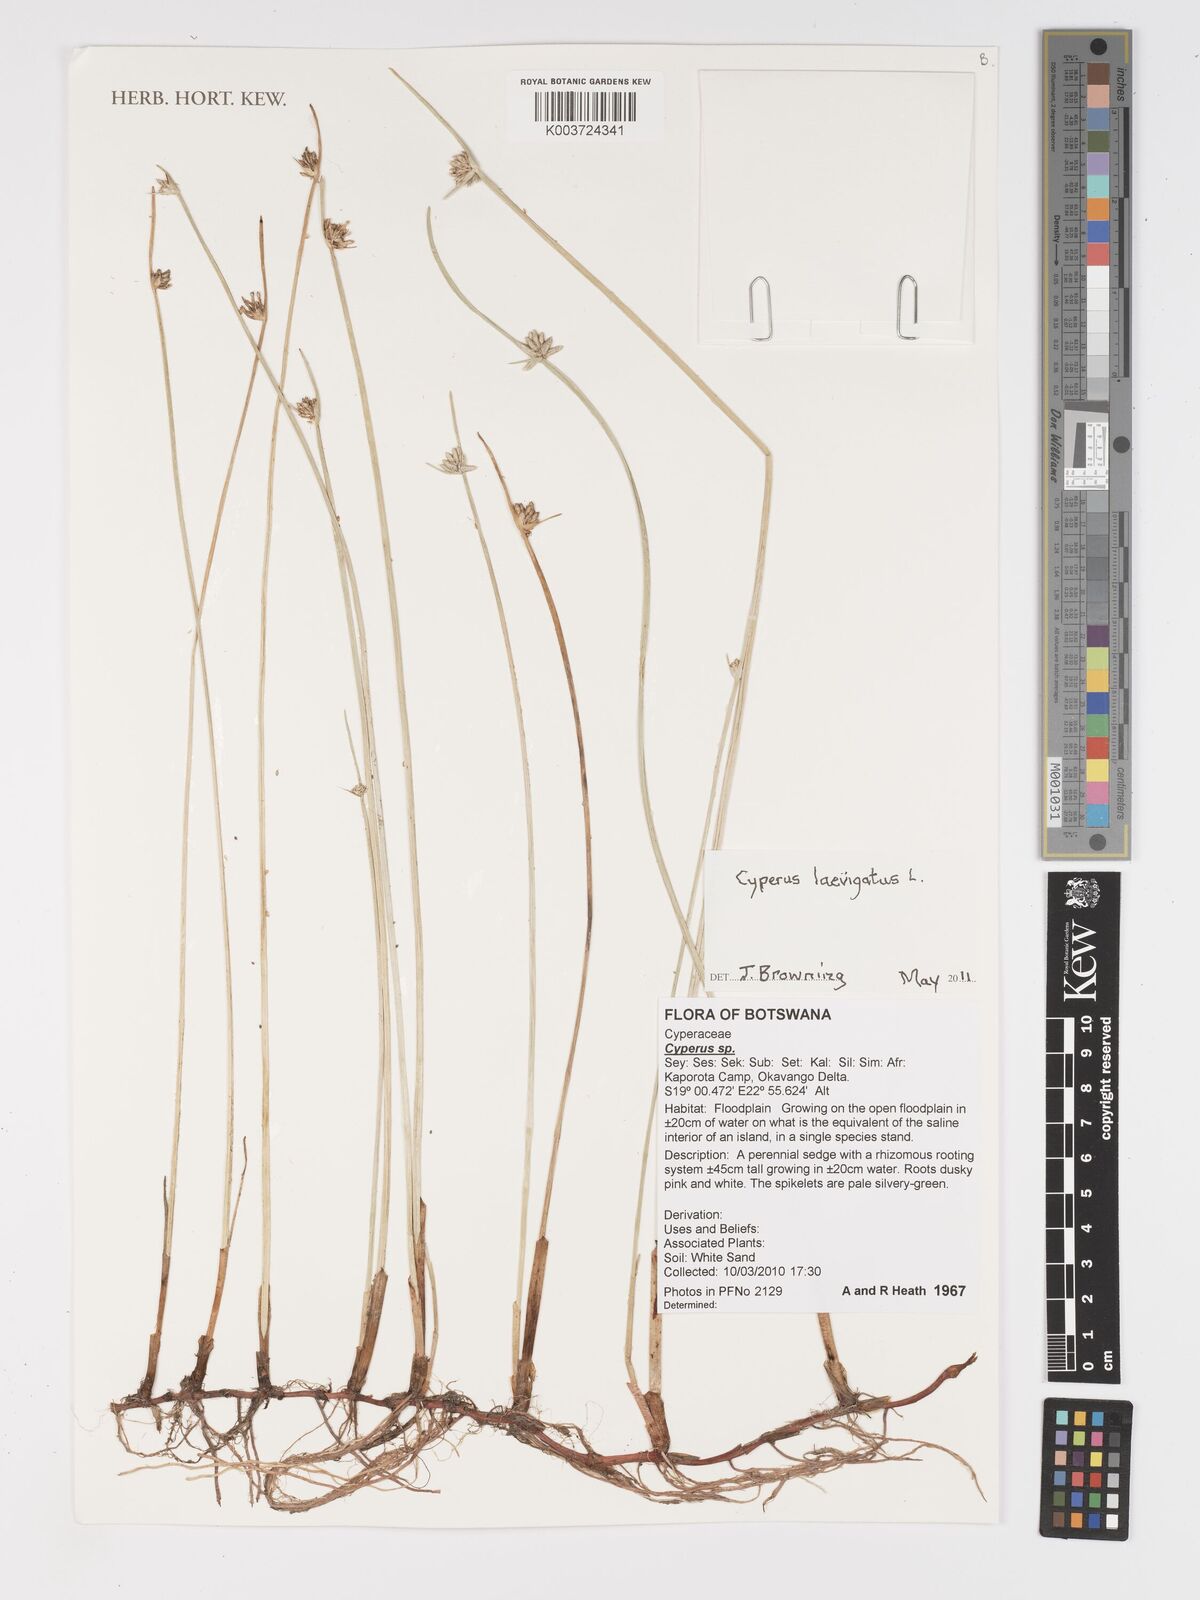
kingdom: Plantae
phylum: Tracheophyta
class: Liliopsida
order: Poales
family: Cyperaceae
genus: Cyperus
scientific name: Cyperus laevigatus
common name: Smooth flat sedge
